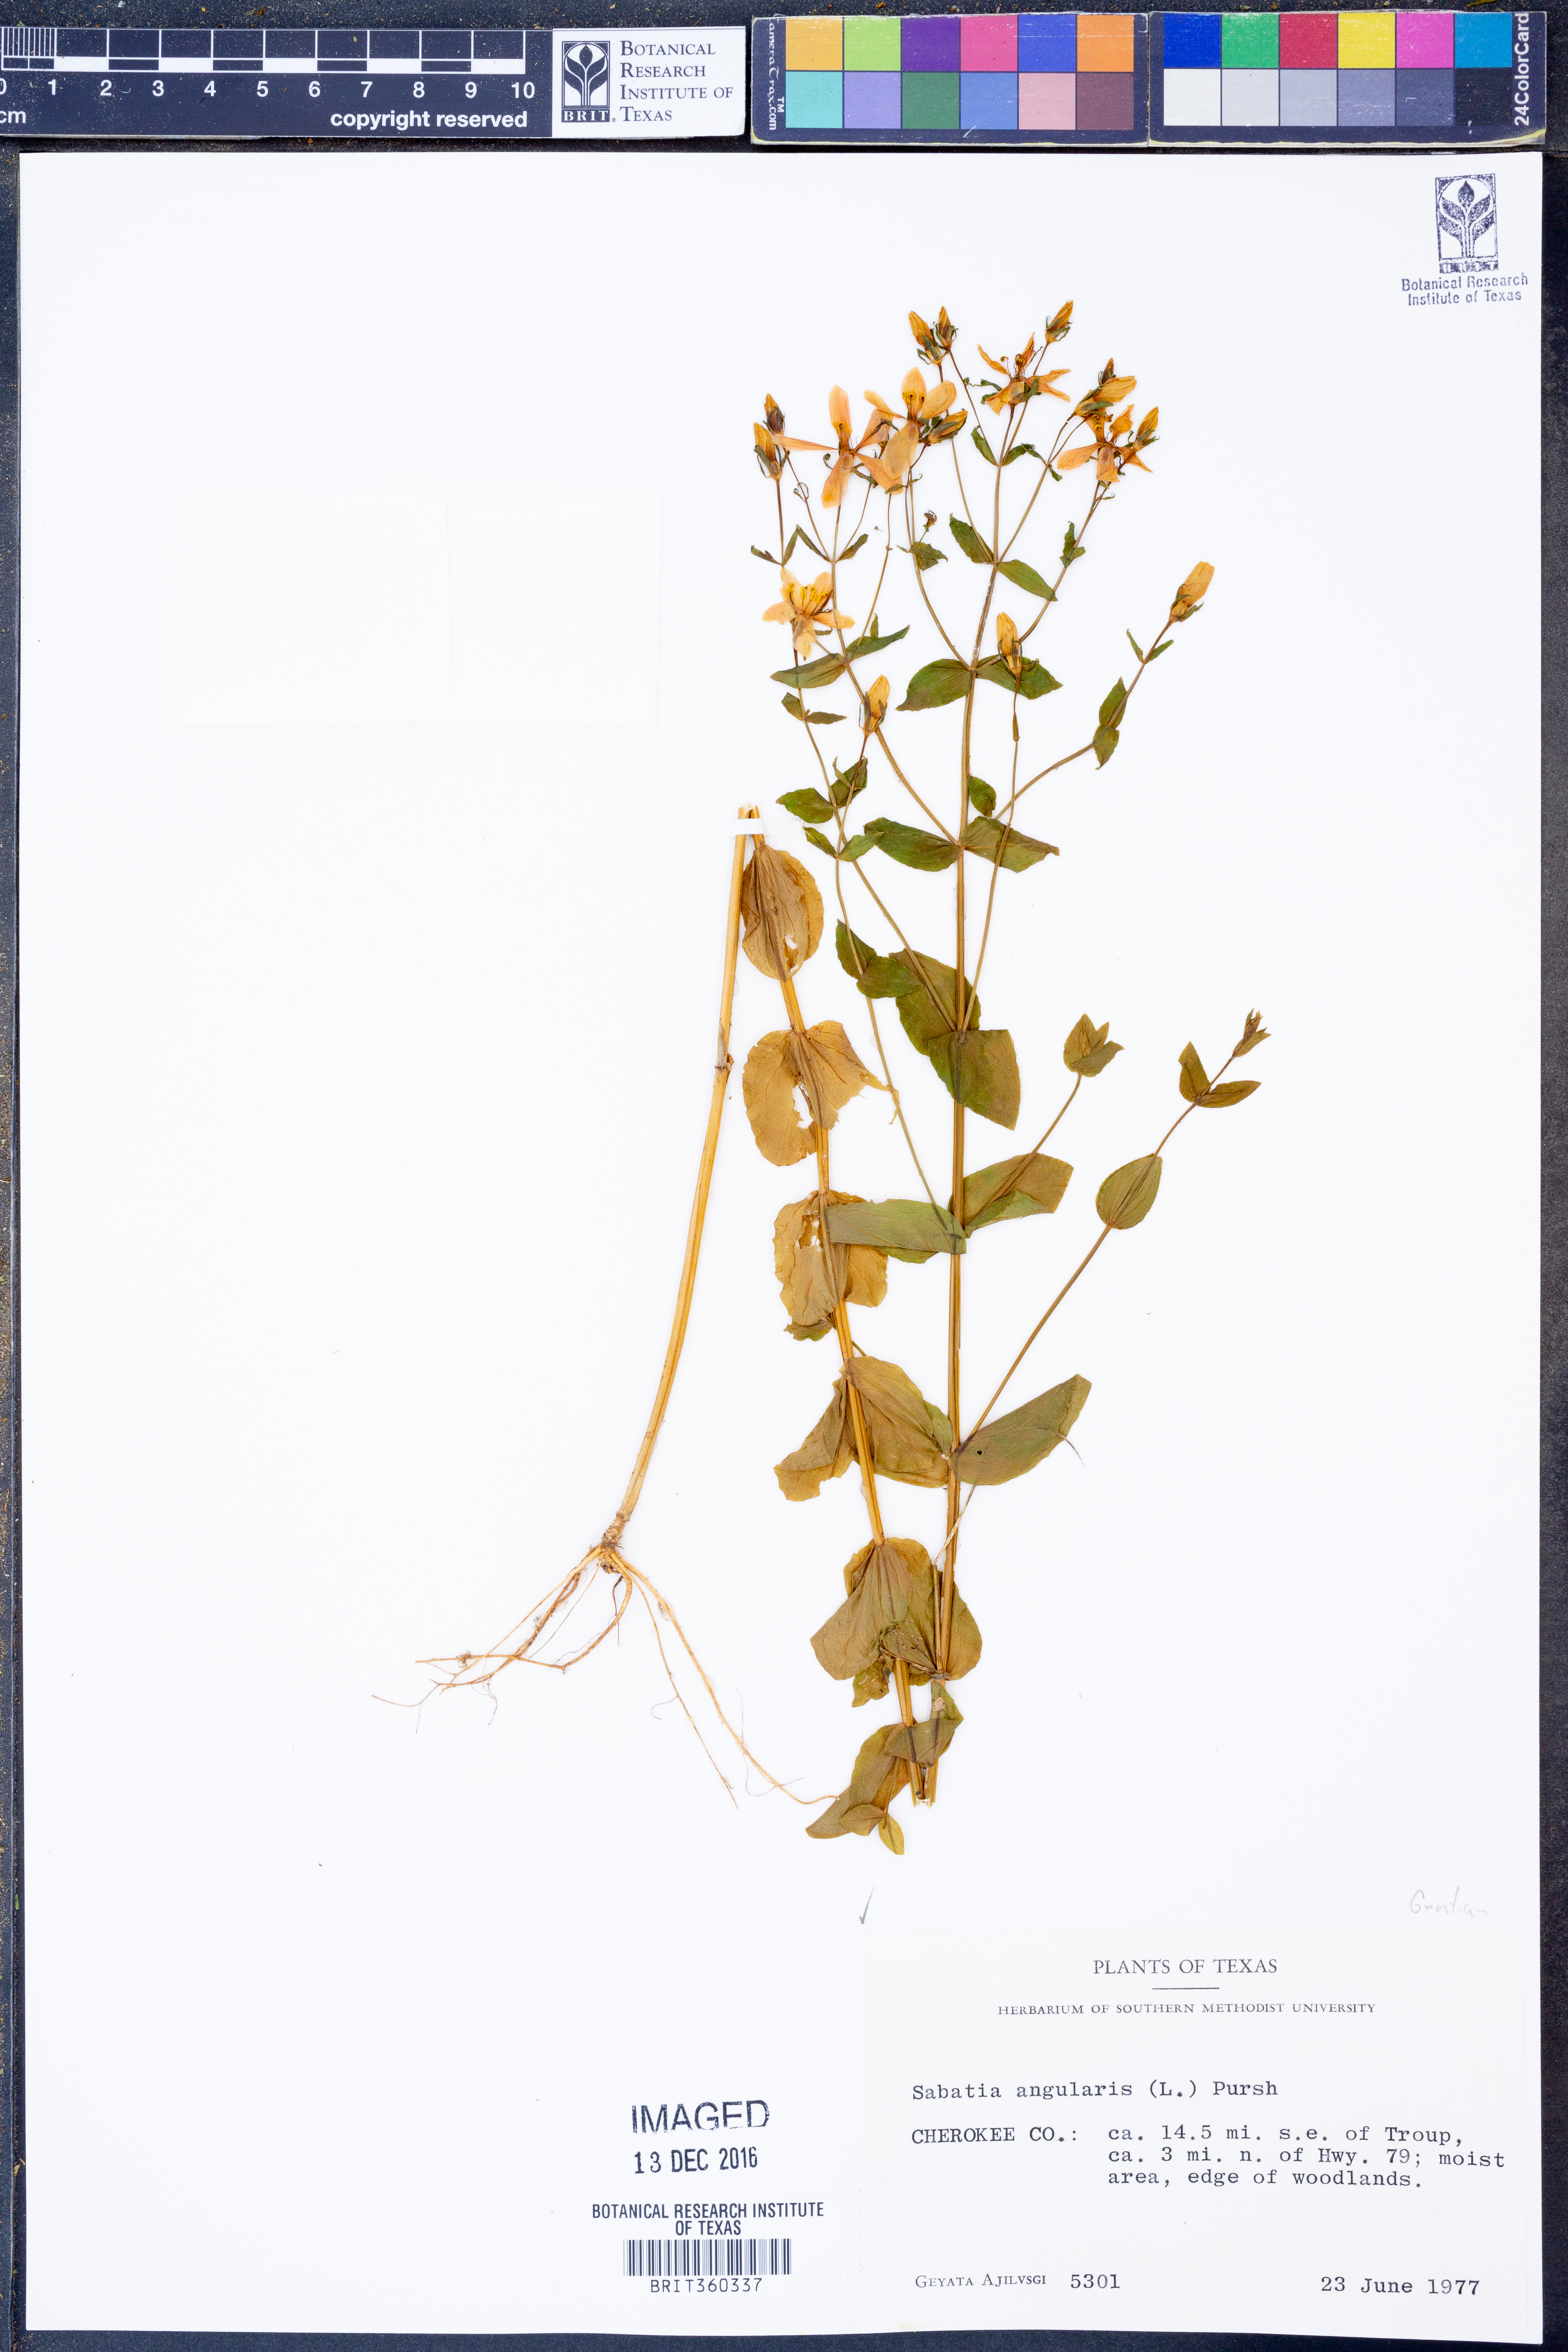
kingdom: Plantae
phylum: Tracheophyta
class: Magnoliopsida
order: Gentianales
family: Gentianaceae
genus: Sabatia
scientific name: Sabatia angularis
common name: Rose-pink
